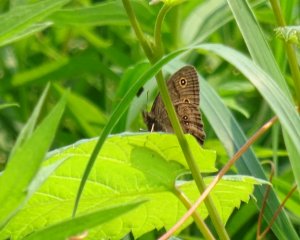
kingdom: Animalia
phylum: Arthropoda
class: Insecta
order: Lepidoptera
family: Nymphalidae
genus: Cercyonis
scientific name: Cercyonis pegala
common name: Common Wood-Nymph
